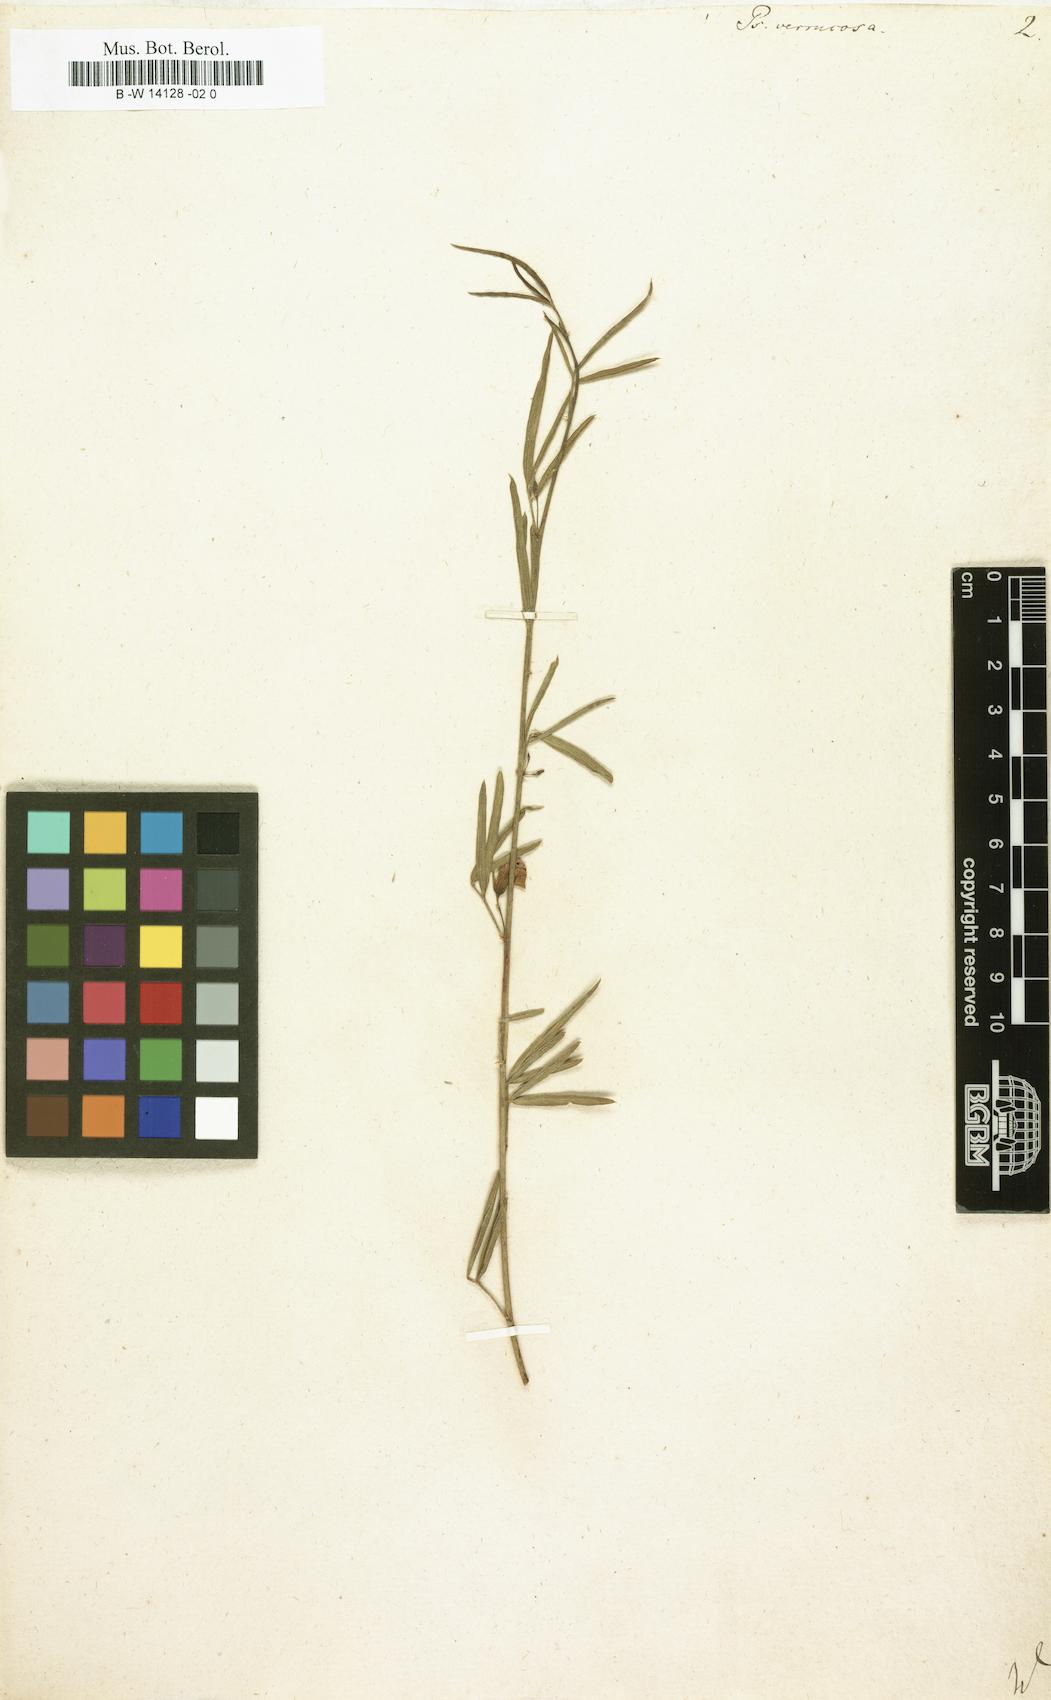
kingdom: Plantae
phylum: Tracheophyta
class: Magnoliopsida
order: Fabales
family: Fabaceae
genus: Psoralea
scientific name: Psoralea verrucosa
